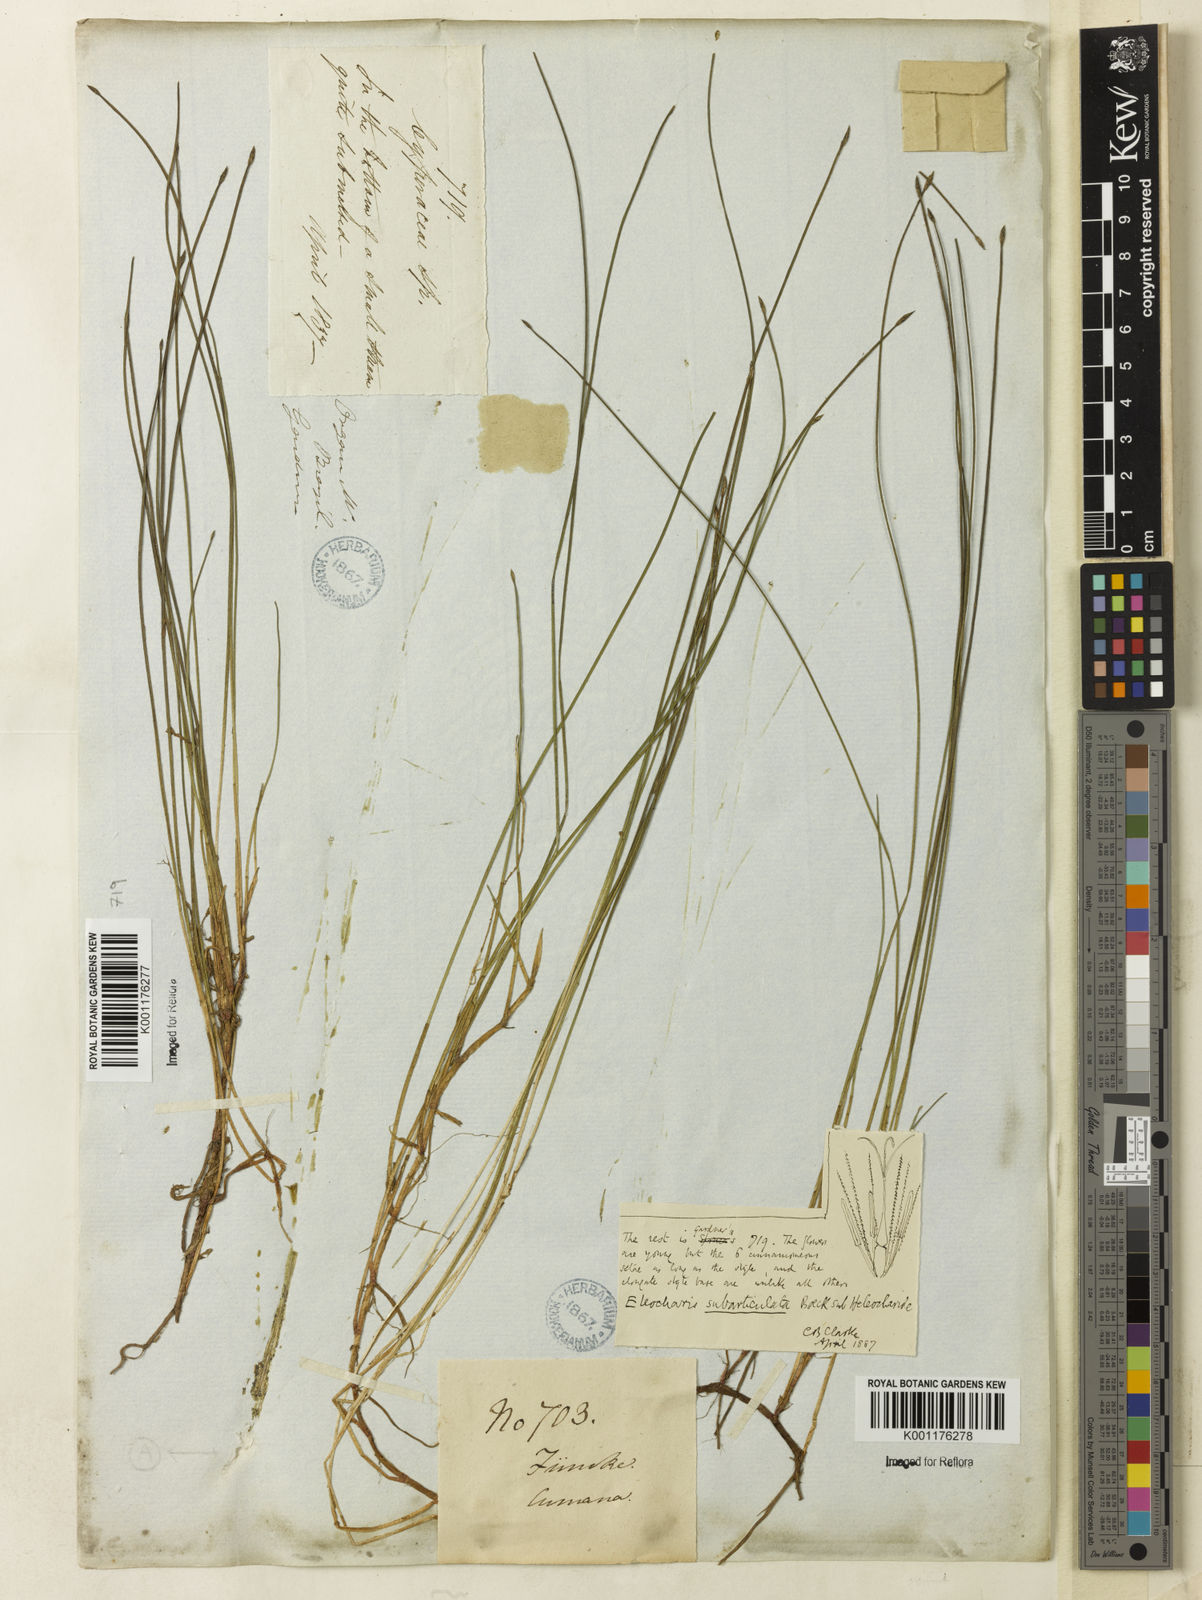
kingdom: Plantae
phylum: Tracheophyta
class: Liliopsida
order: Poales
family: Cyperaceae
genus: Eleocharis
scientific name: Eleocharis subarticulata
